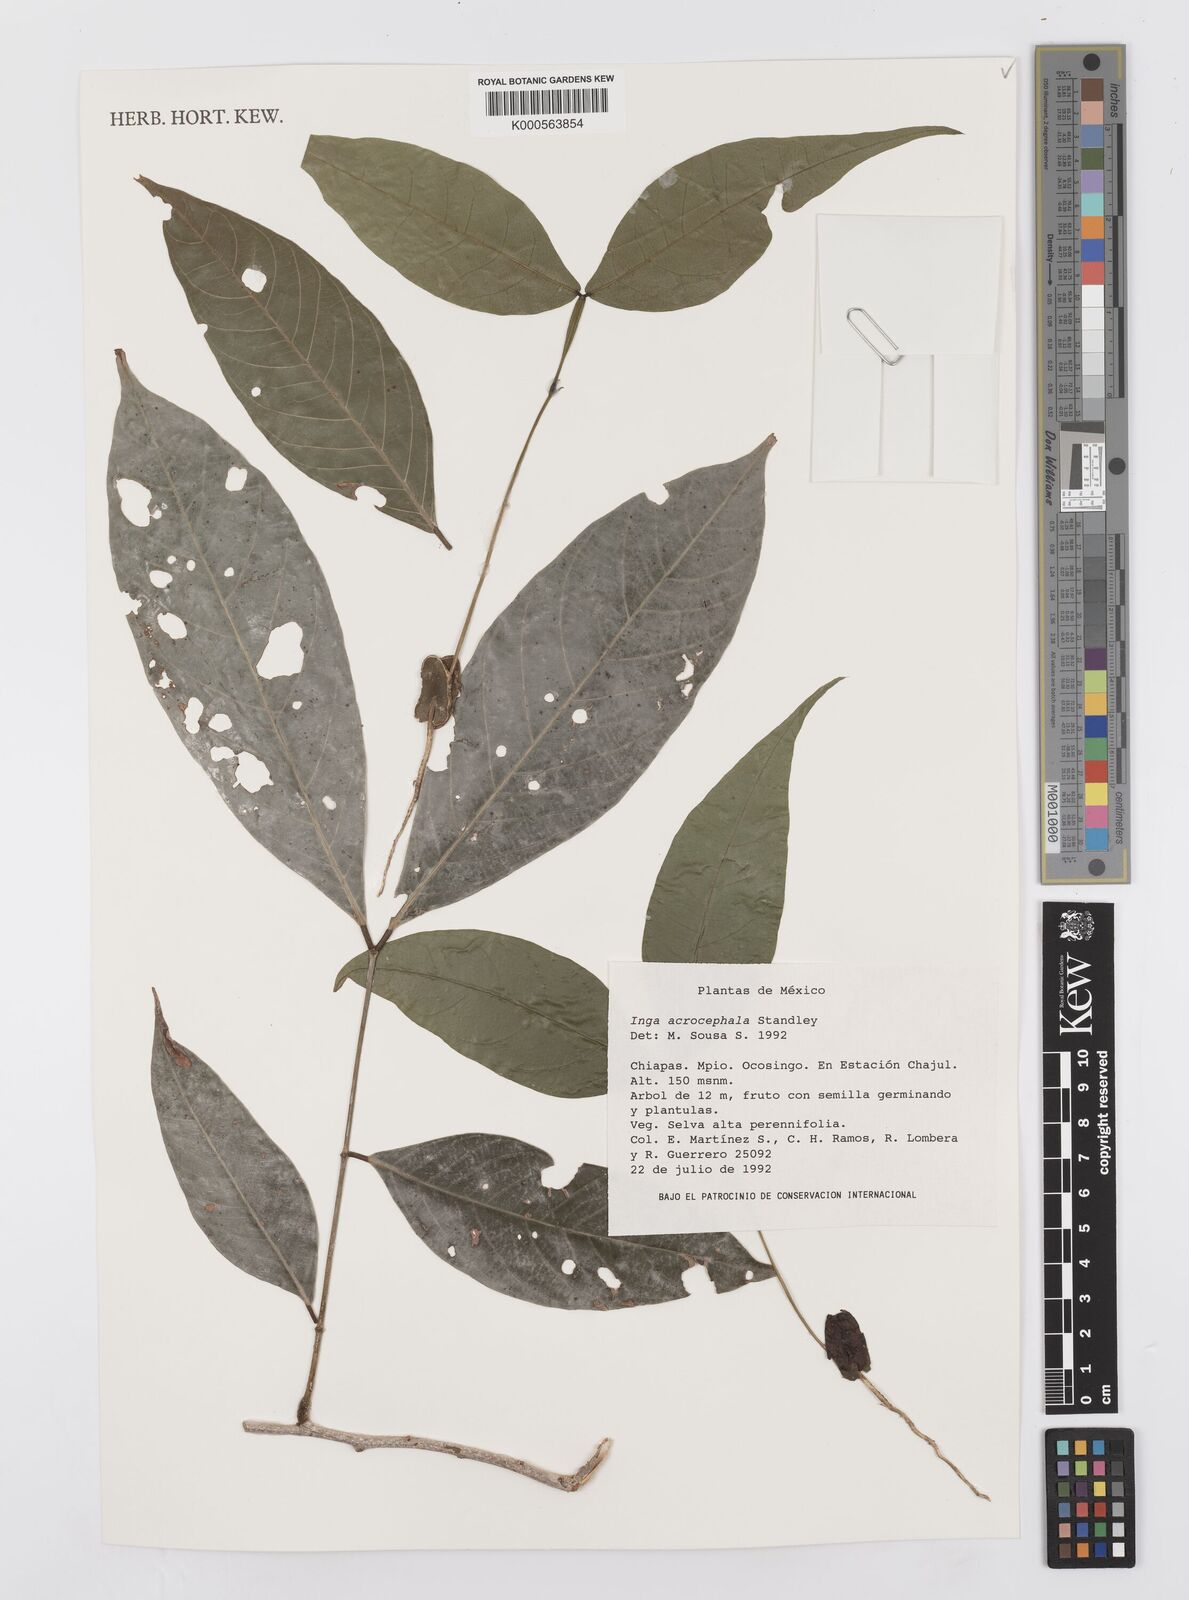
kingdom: Plantae
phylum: Tracheophyta
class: Magnoliopsida
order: Fabales
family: Fabaceae
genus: Inga
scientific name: Inga acrocephala
